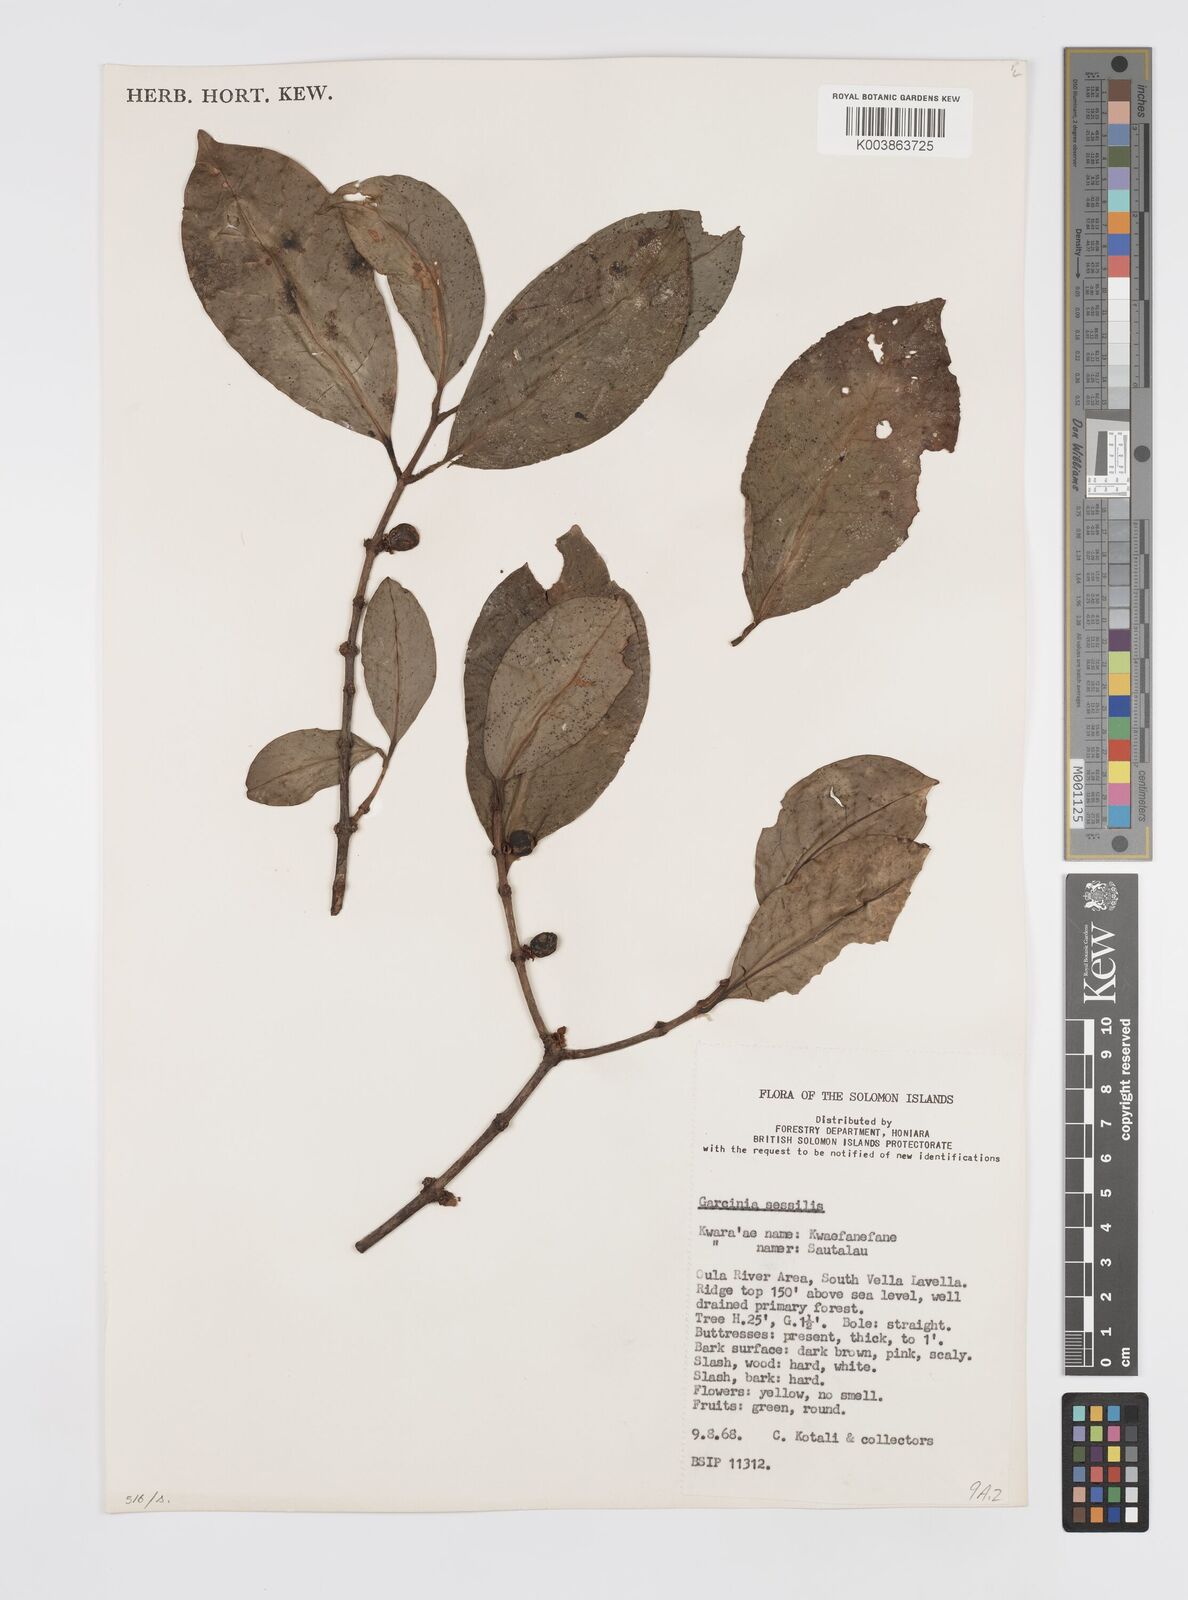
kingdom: Plantae
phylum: Tracheophyta
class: Magnoliopsida
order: Malpighiales
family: Clusiaceae
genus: Garcinia
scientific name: Garcinia sessilis
